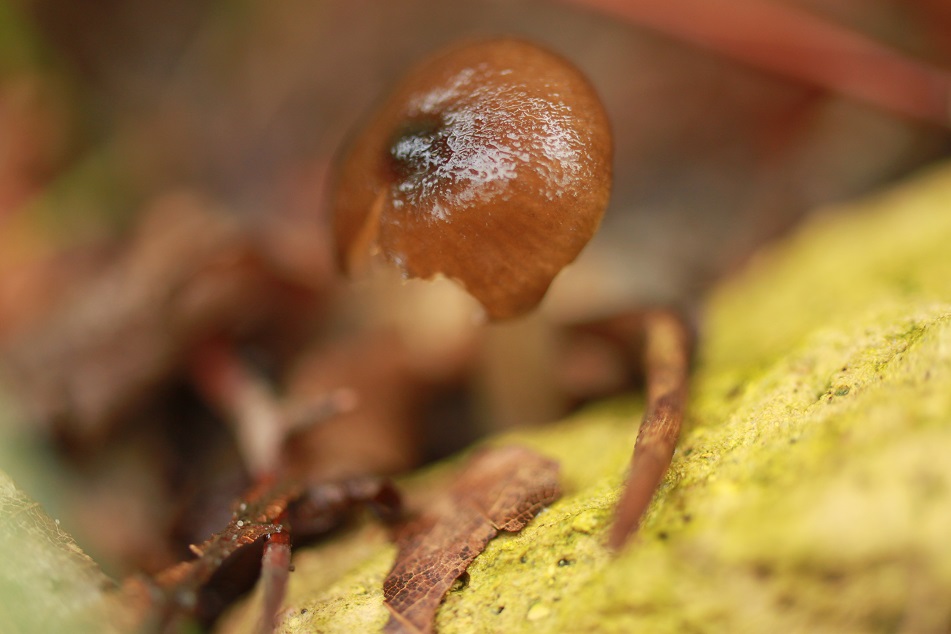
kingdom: Fungi
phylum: Basidiomycota
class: Agaricomycetes
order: Agaricales
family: Entolomataceae
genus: Entoloma
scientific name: Entoloma bryorum
